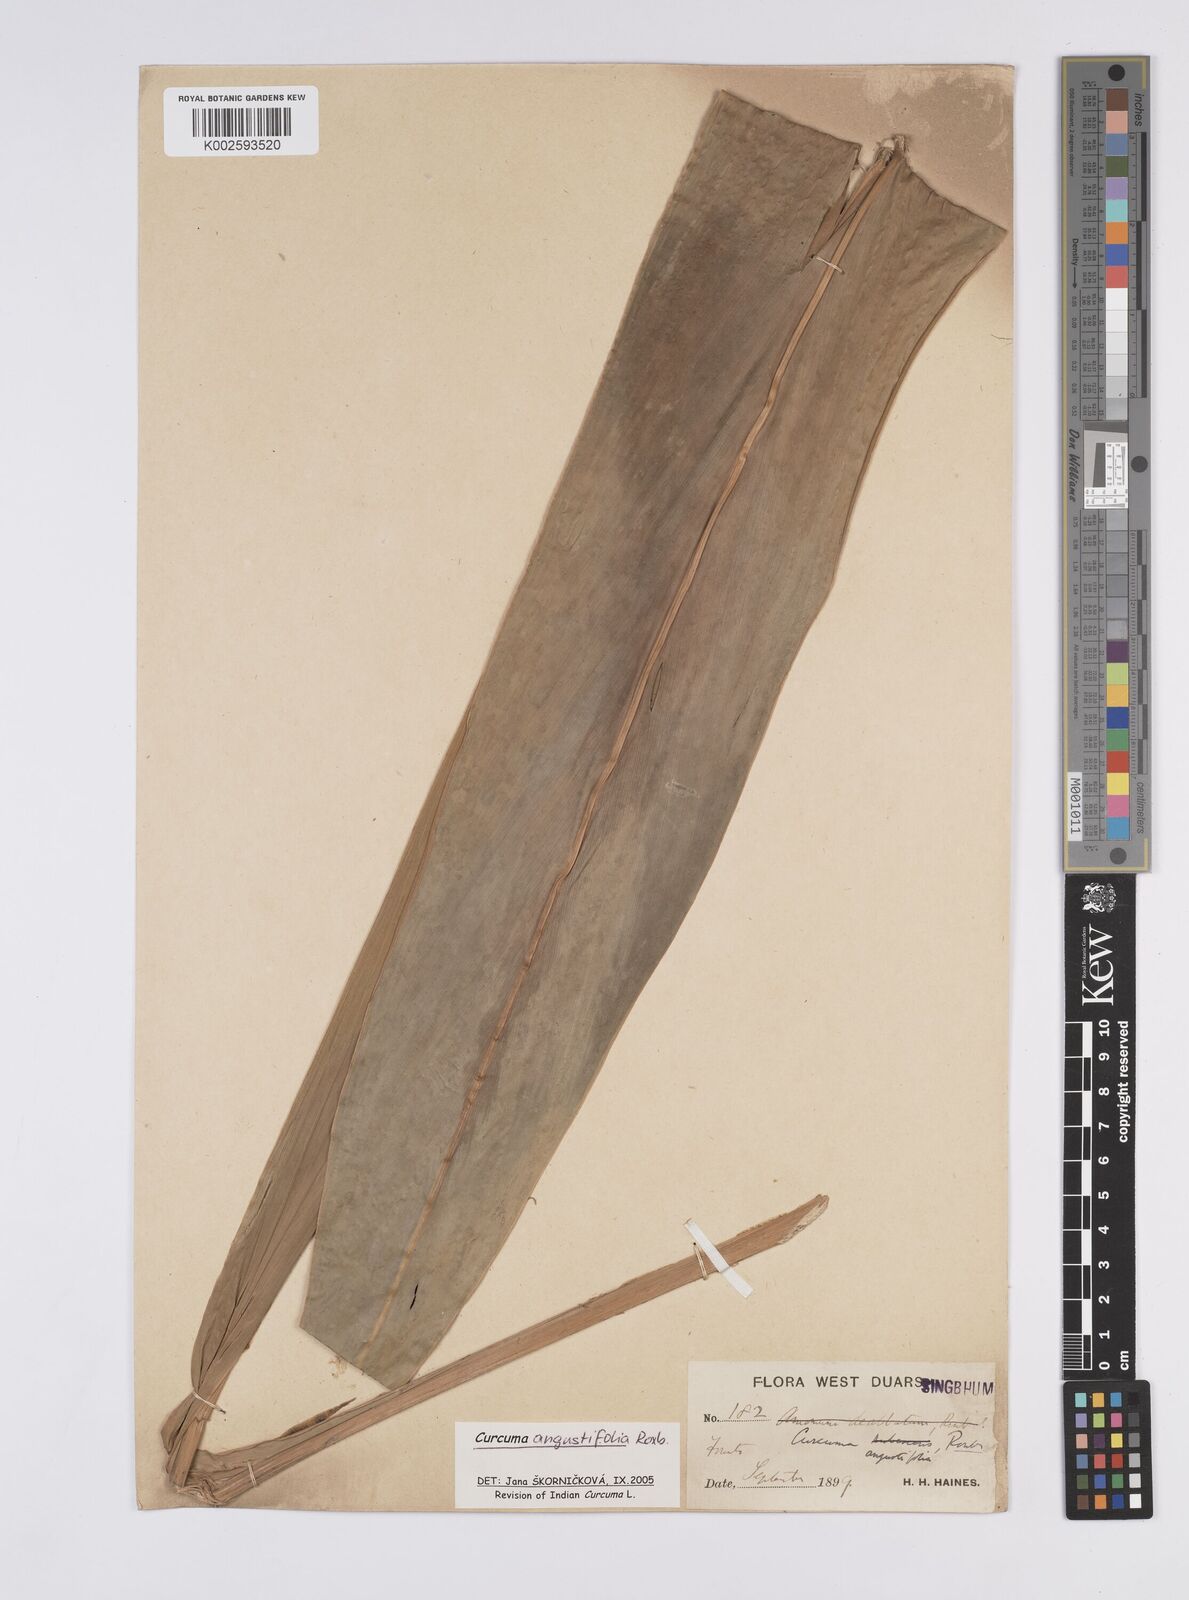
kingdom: Plantae
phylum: Tracheophyta
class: Liliopsida
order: Zingiberales
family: Zingiberaceae
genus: Curcuma
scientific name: Curcuma angustifolia
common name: East indian arrowroot
